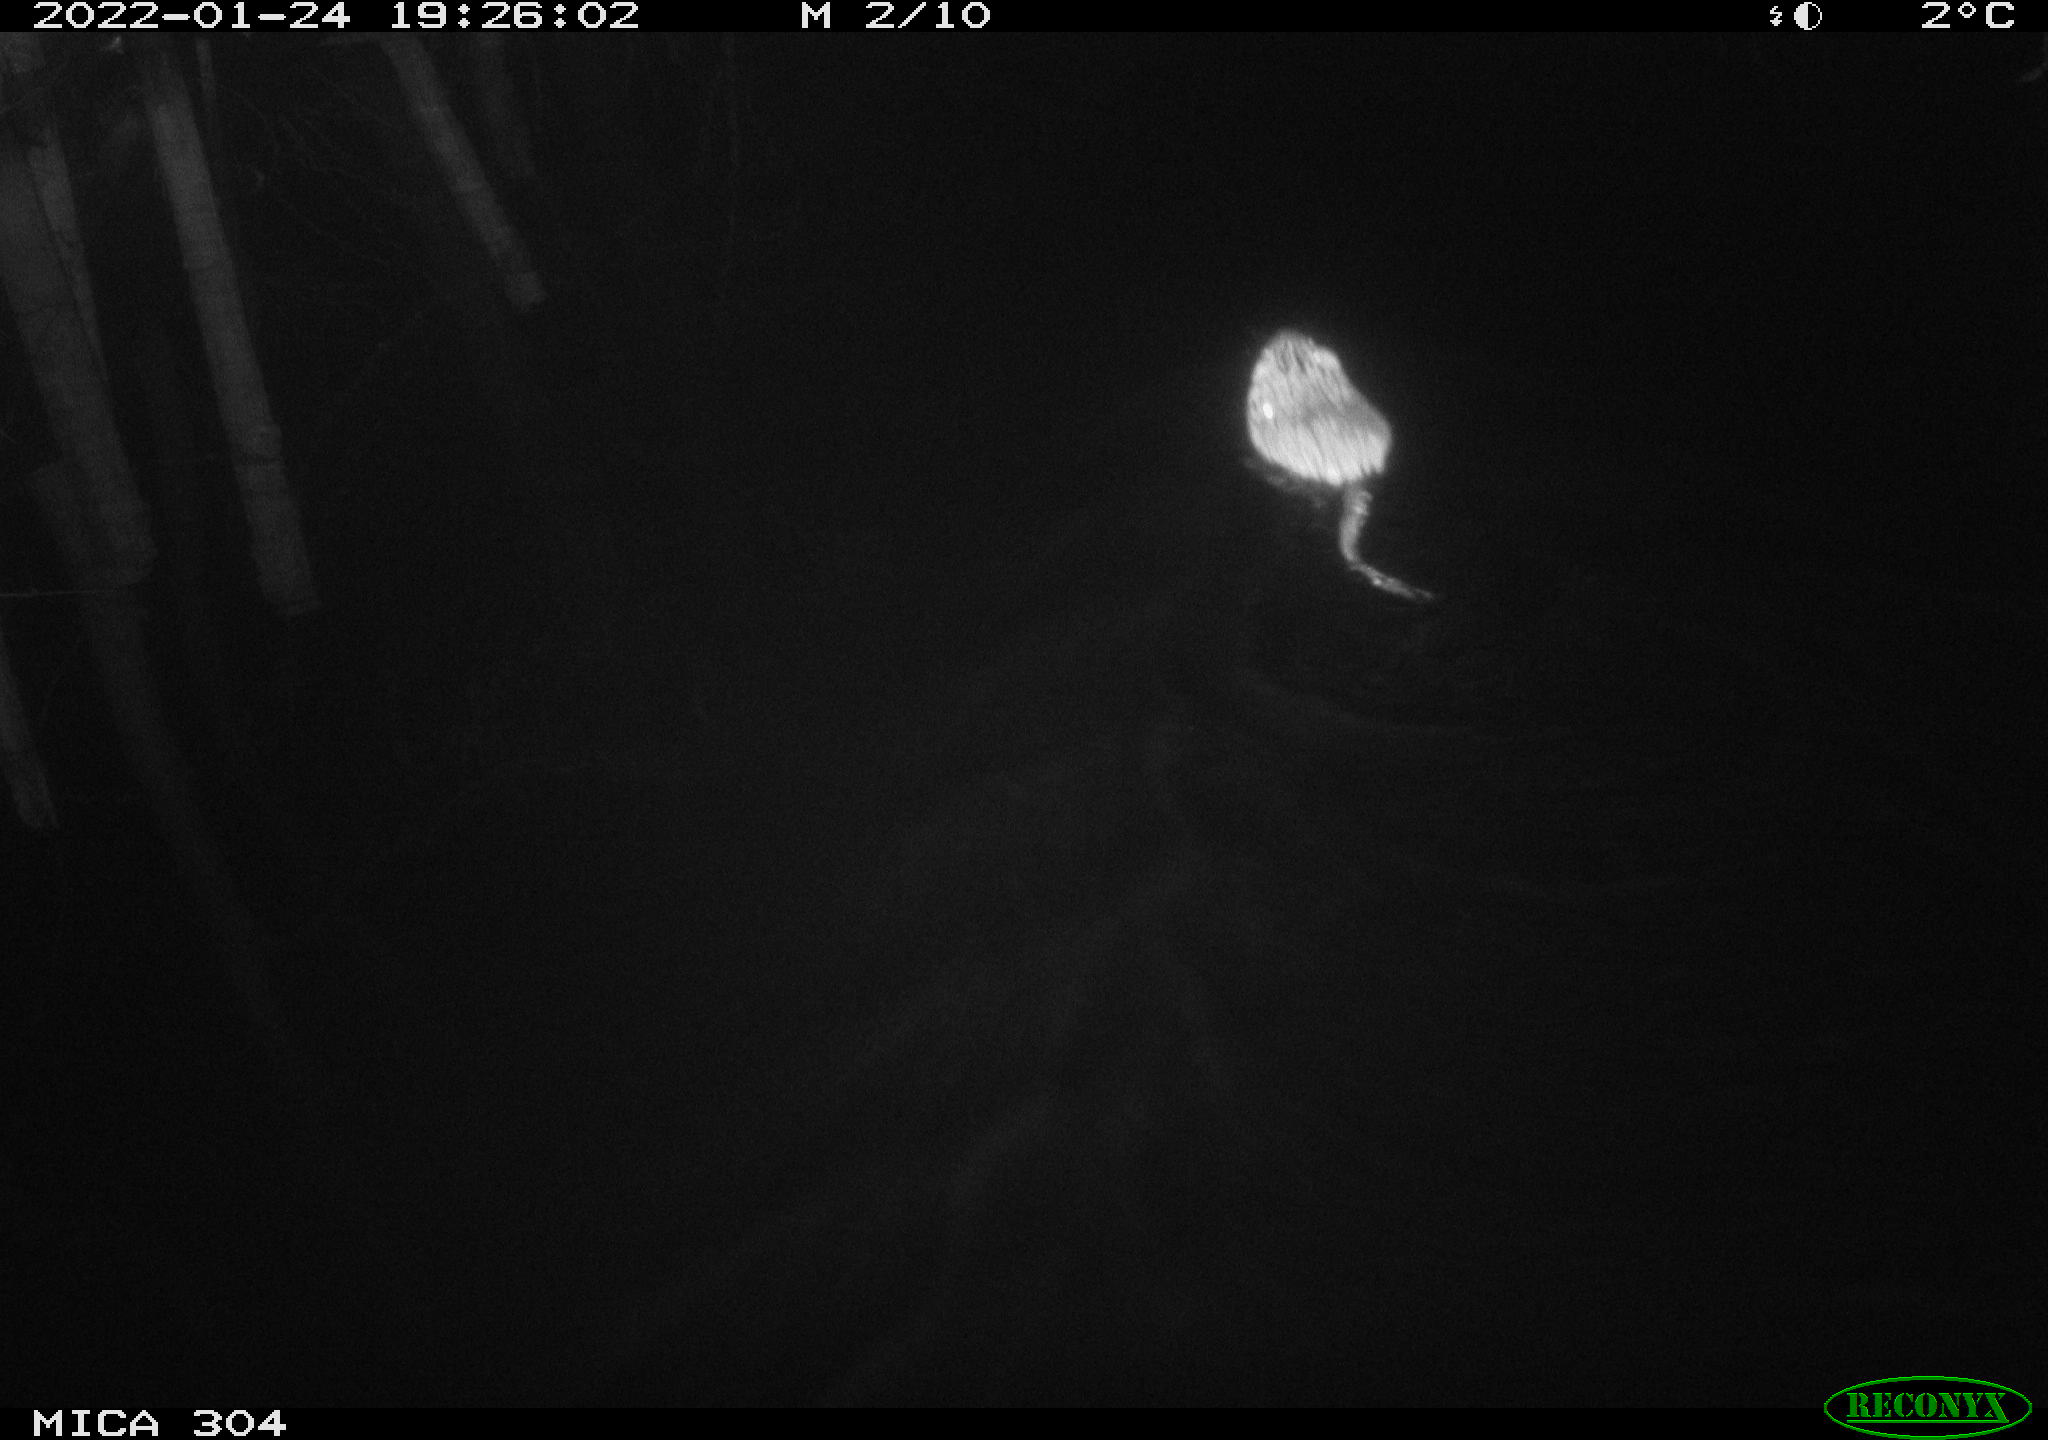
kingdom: Animalia
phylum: Chordata
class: Mammalia
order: Rodentia
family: Cricetidae
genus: Ondatra
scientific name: Ondatra zibethicus
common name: Muskrat
